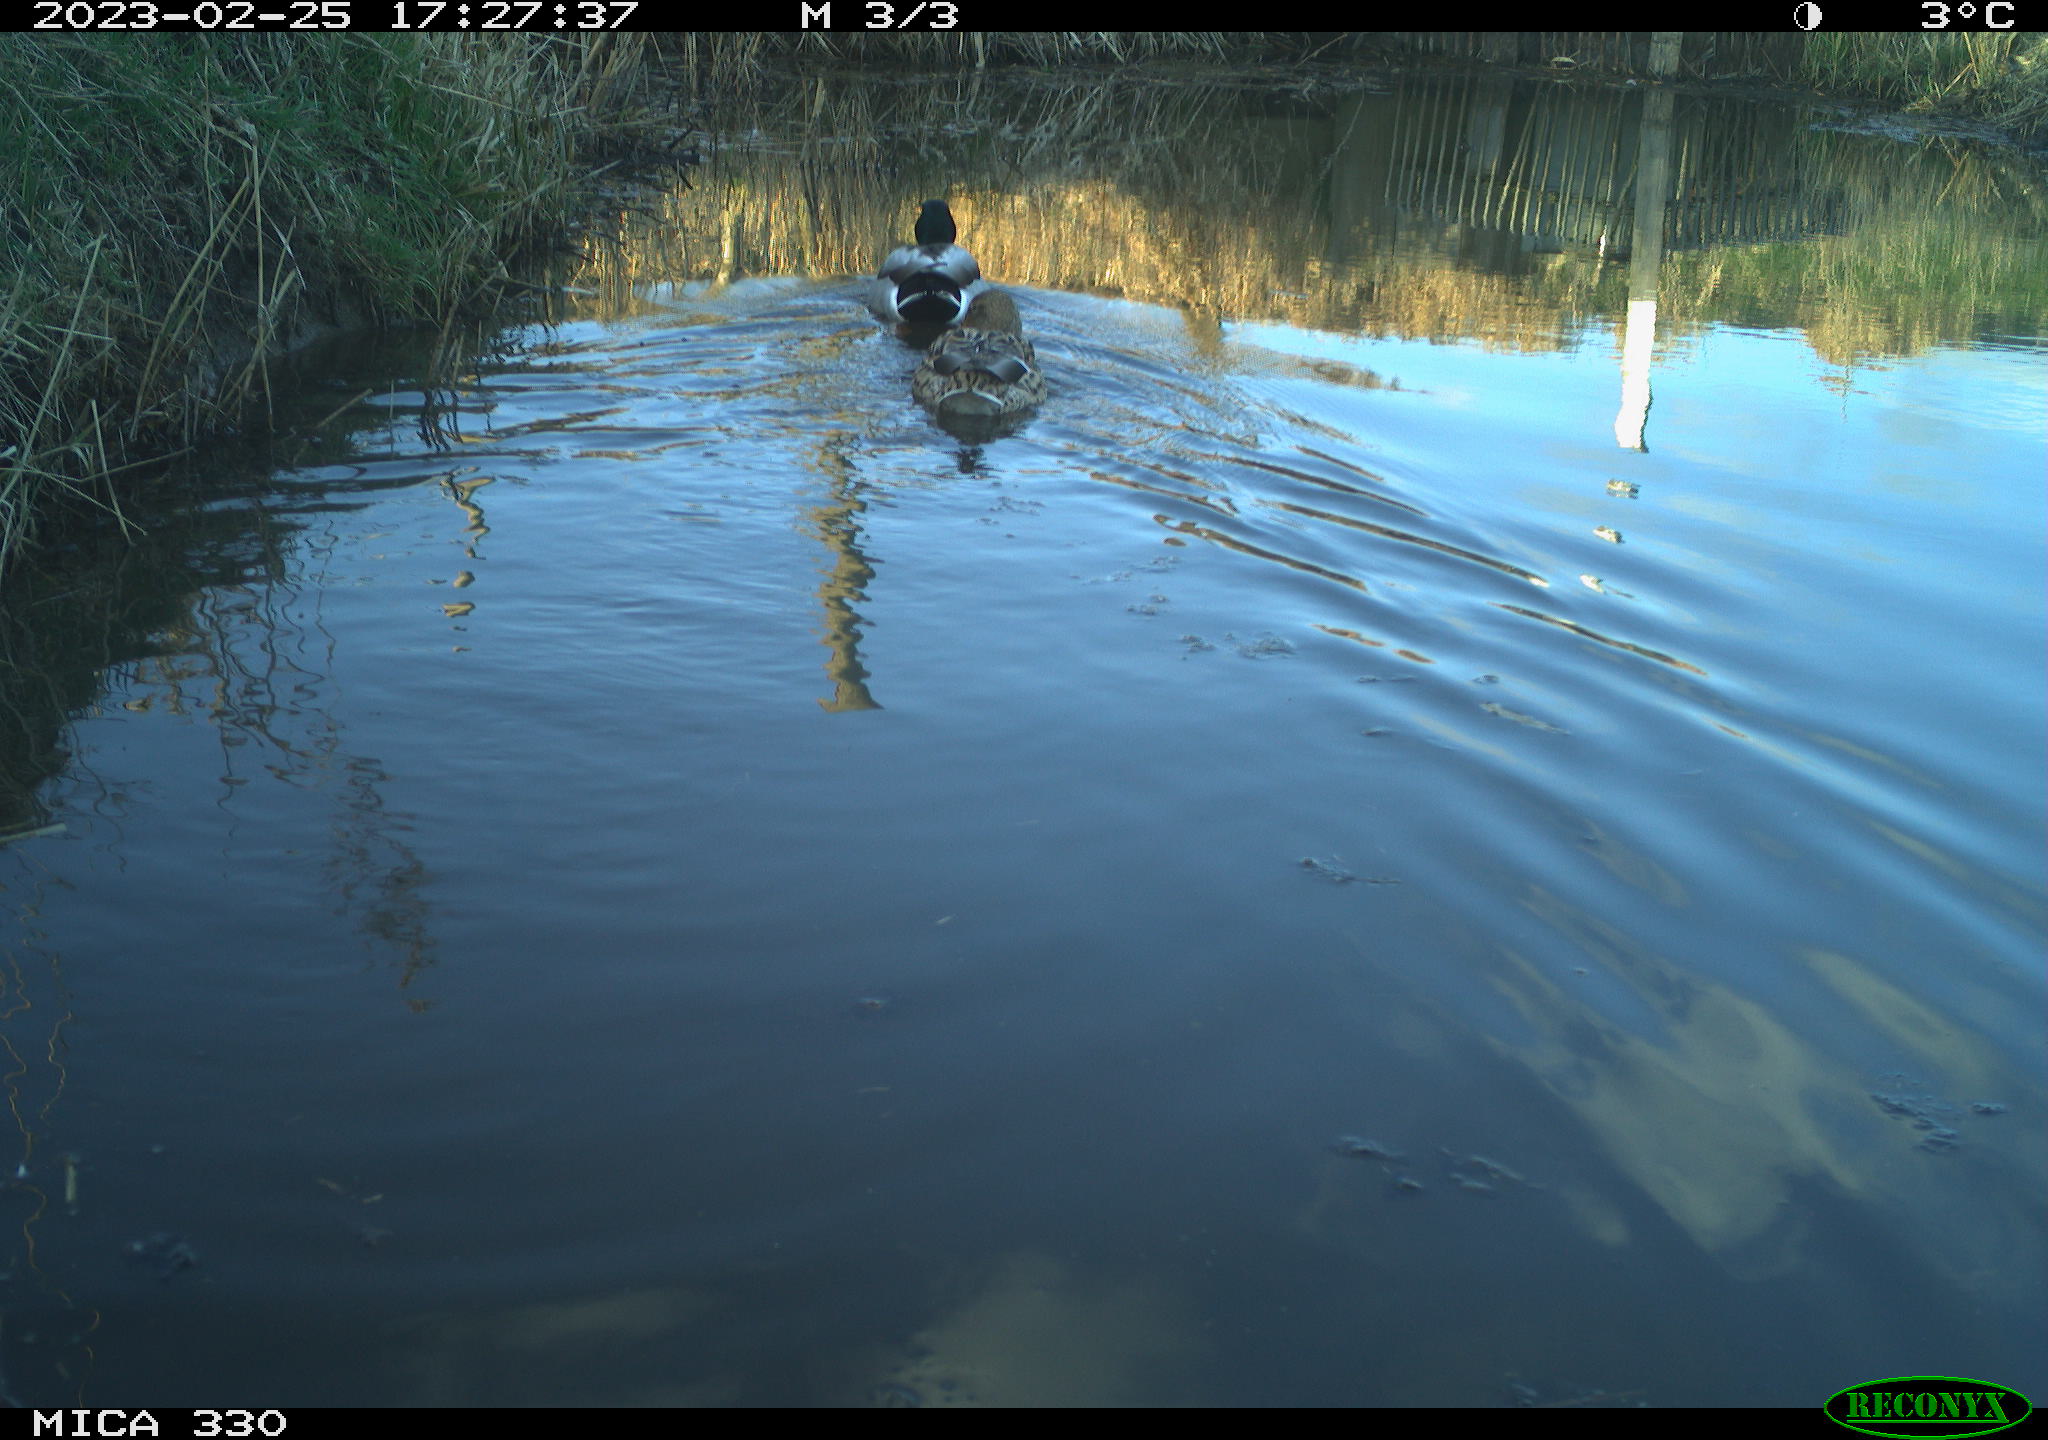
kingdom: Animalia
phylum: Chordata
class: Aves
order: Anseriformes
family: Anatidae
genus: Anas
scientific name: Anas
